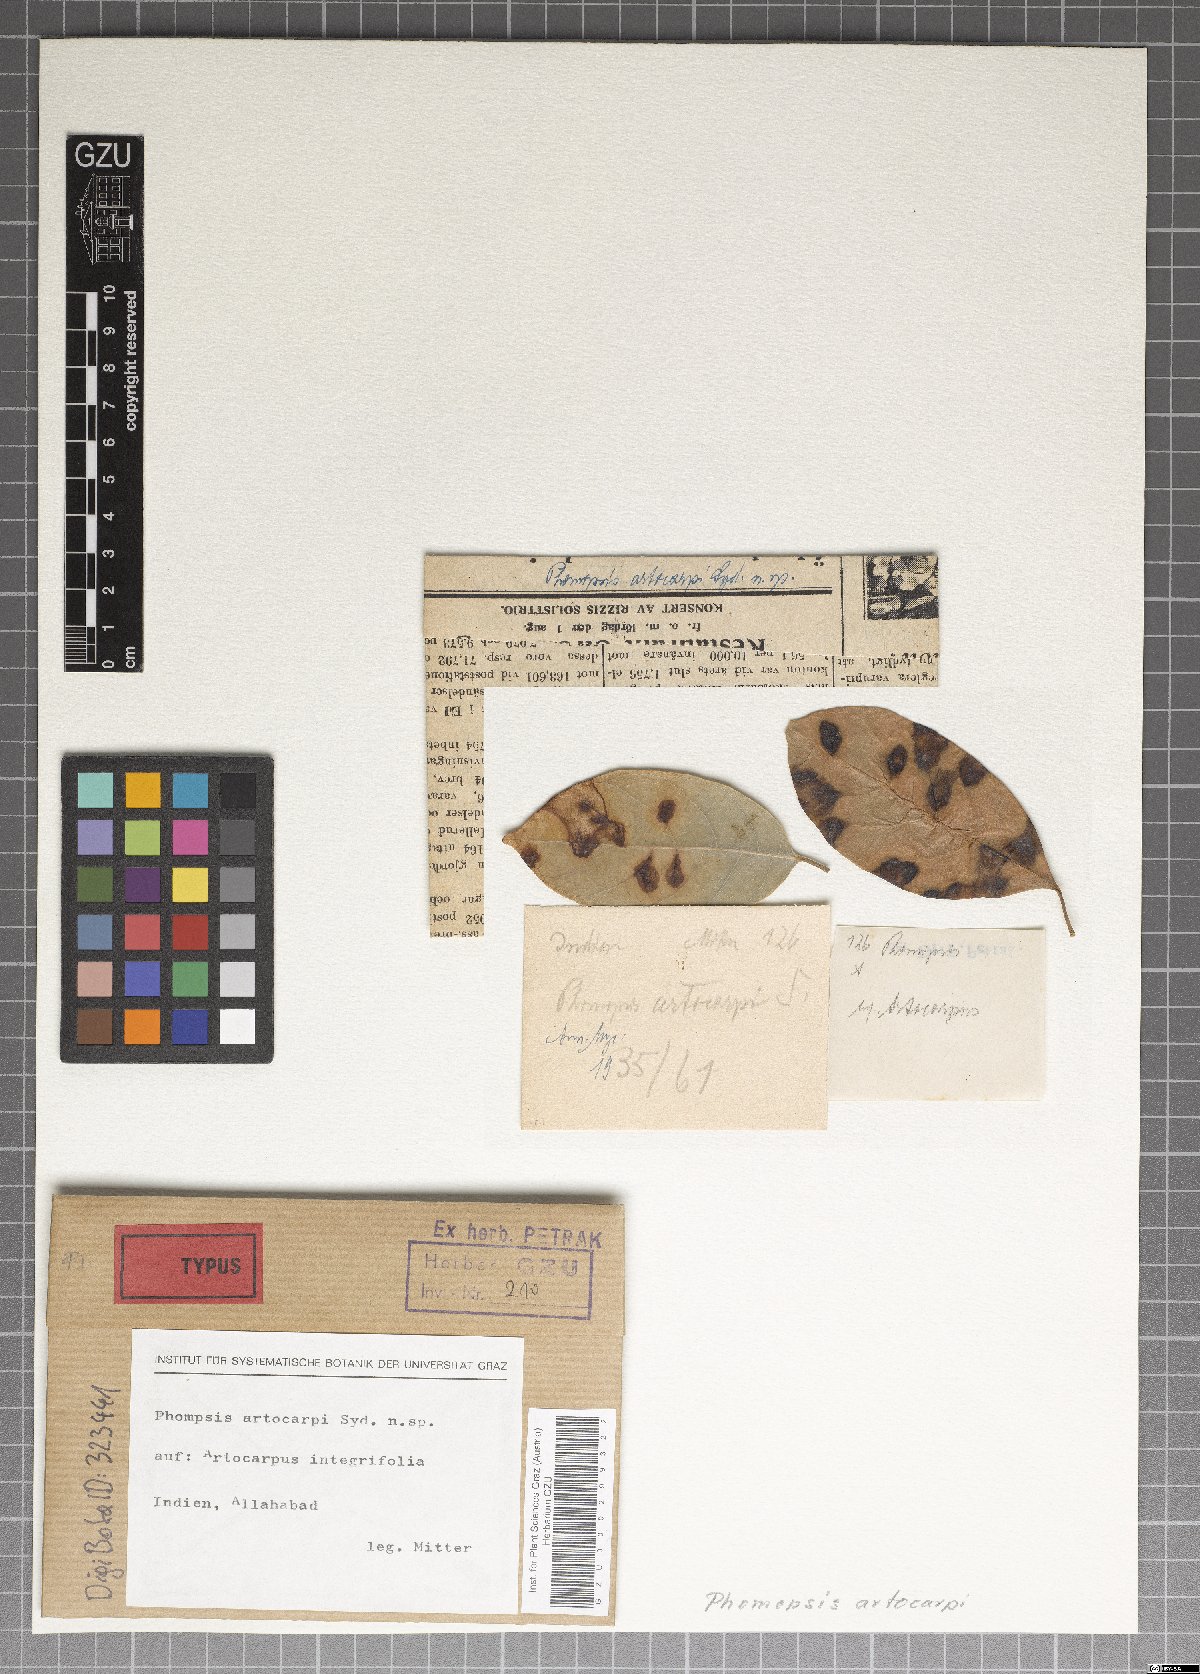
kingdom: Fungi
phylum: Ascomycota
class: Sordariomycetes
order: Diaporthales
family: Diaporthaceae
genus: Phomopsis
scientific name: Phomopsis artocarpi
